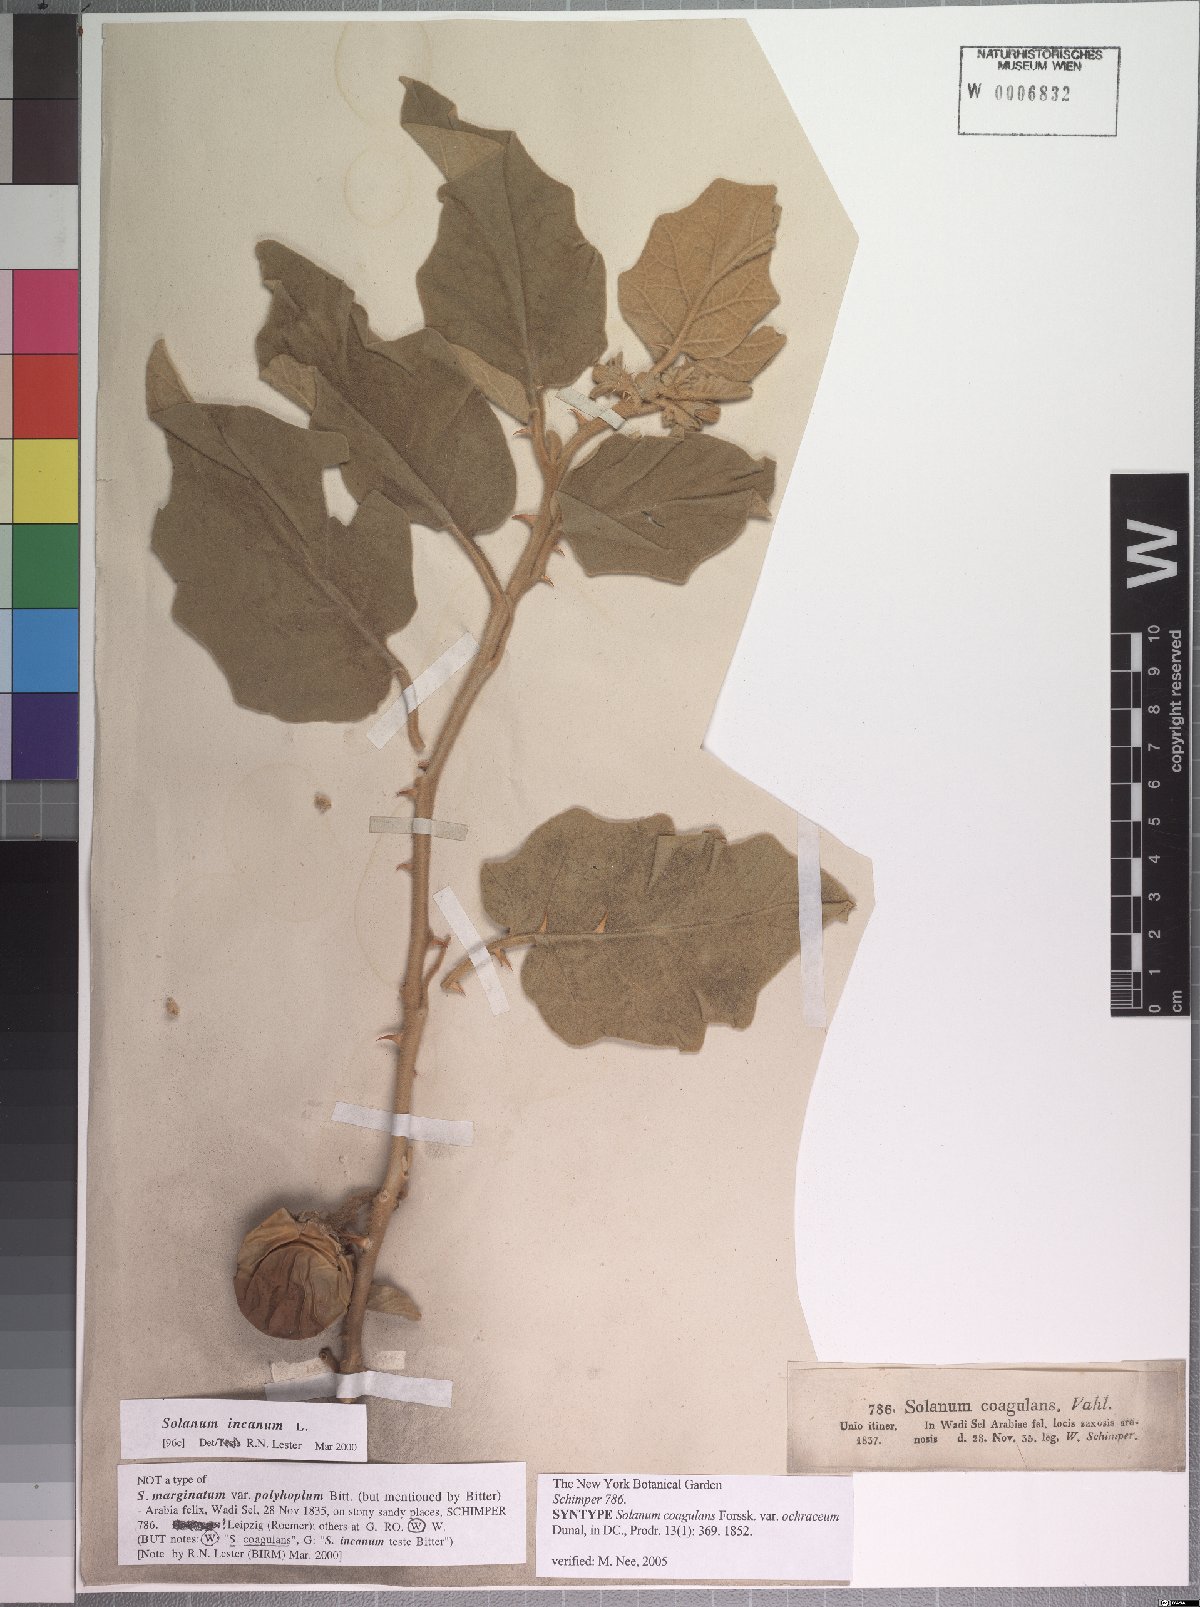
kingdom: Plantae
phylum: Tracheophyta
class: Magnoliopsida
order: Solanales
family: Solanaceae
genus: Solanum
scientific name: Solanum coagulans
